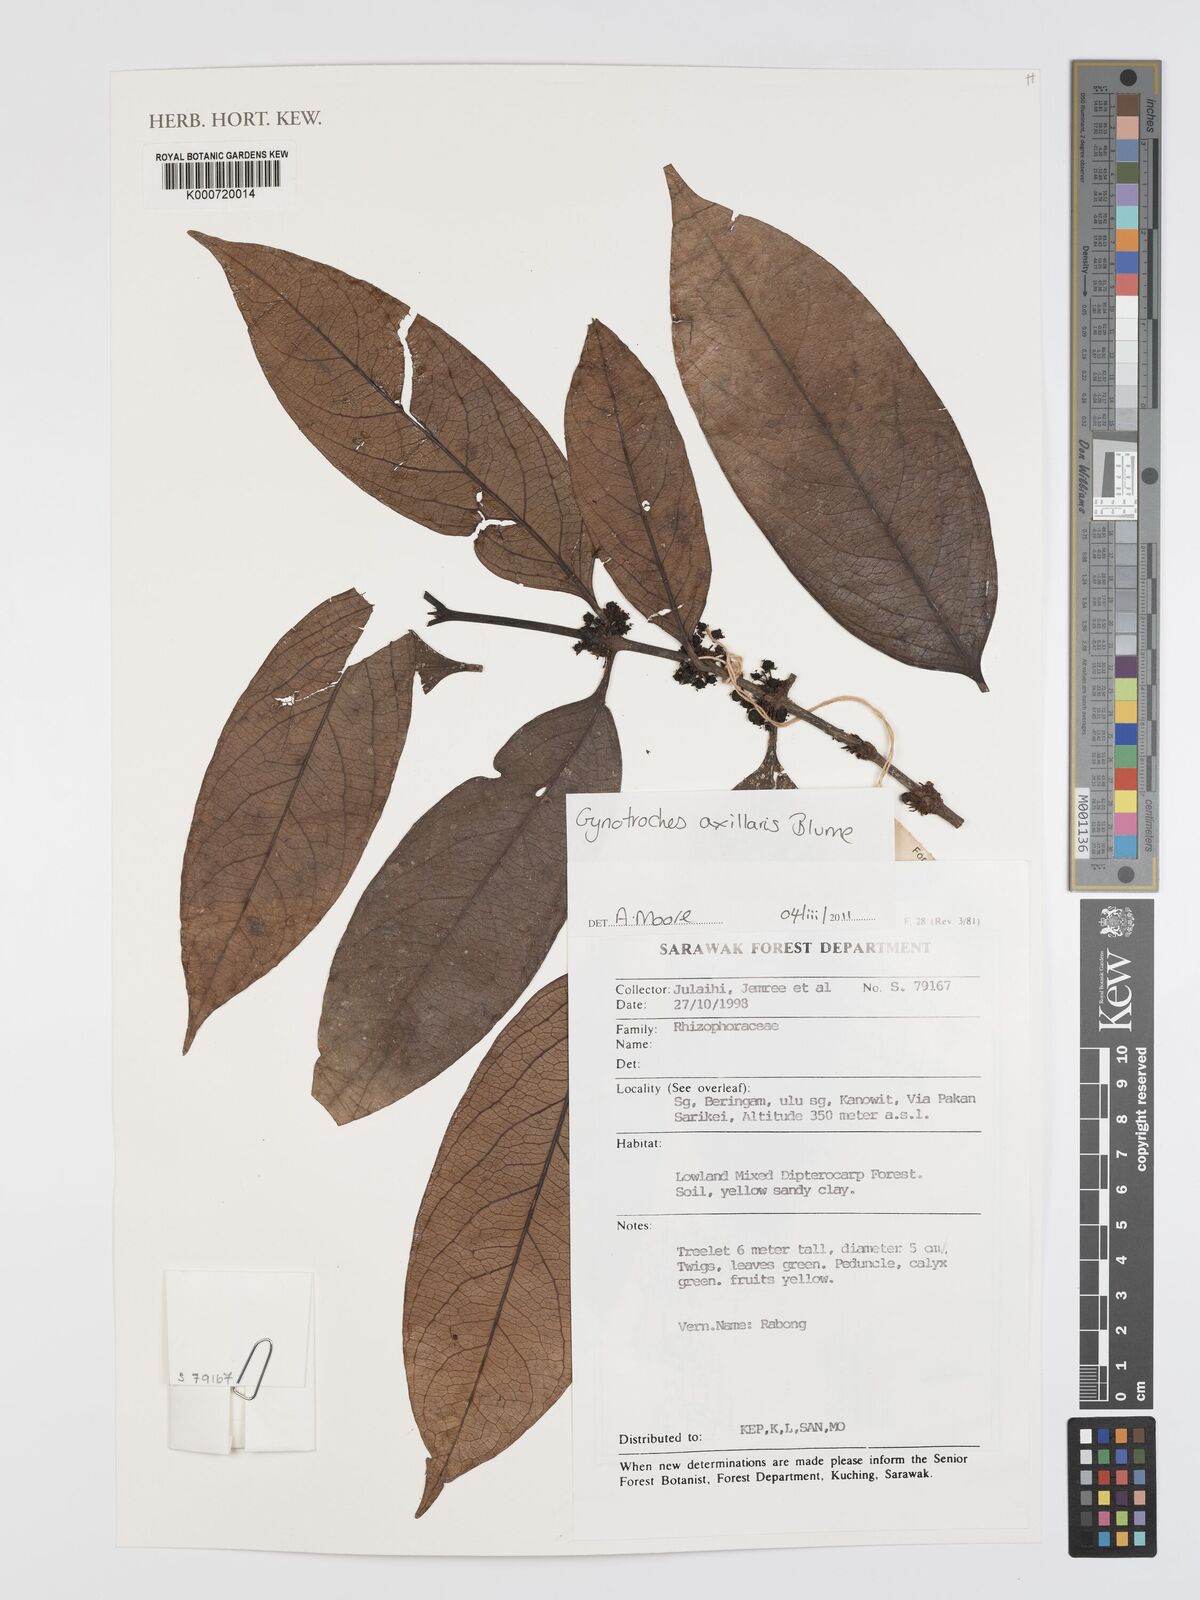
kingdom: Plantae
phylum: Tracheophyta
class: Magnoliopsida
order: Malpighiales
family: Rhizophoraceae
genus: Gynotroches
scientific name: Gynotroches axillaris
